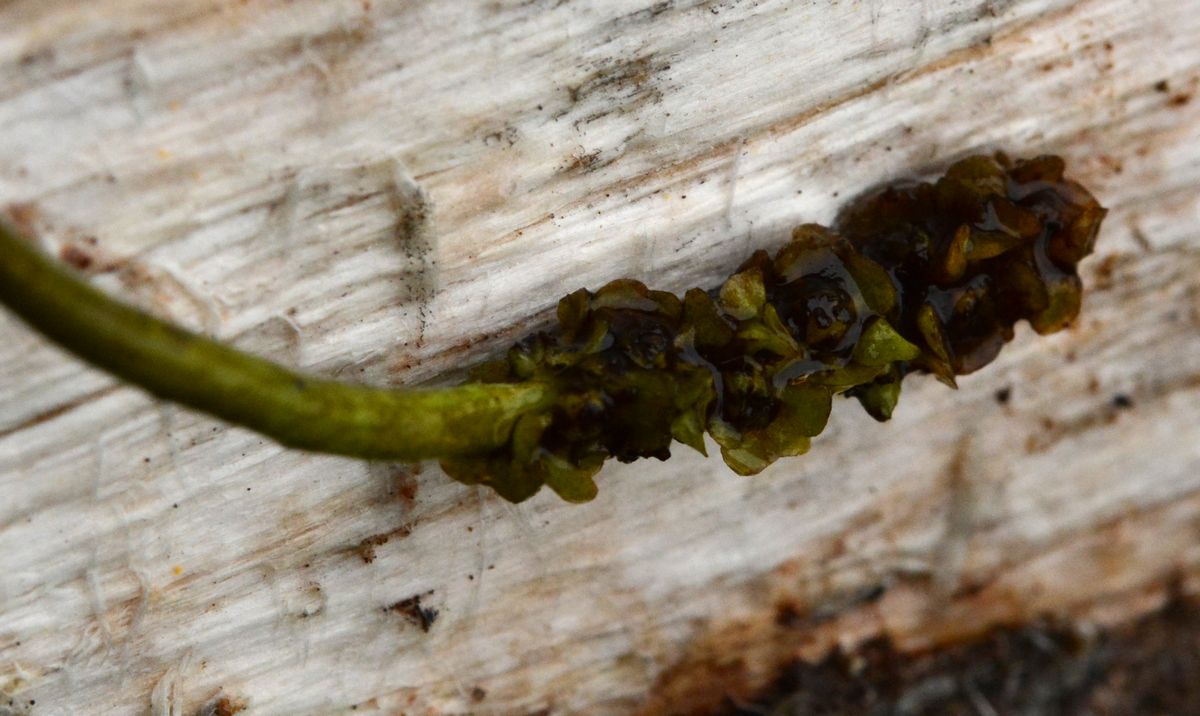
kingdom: Plantae
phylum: Tracheophyta
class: Liliopsida
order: Alismatales
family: Potamogetonaceae
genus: Potamogeton
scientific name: Potamogeton gramineus
